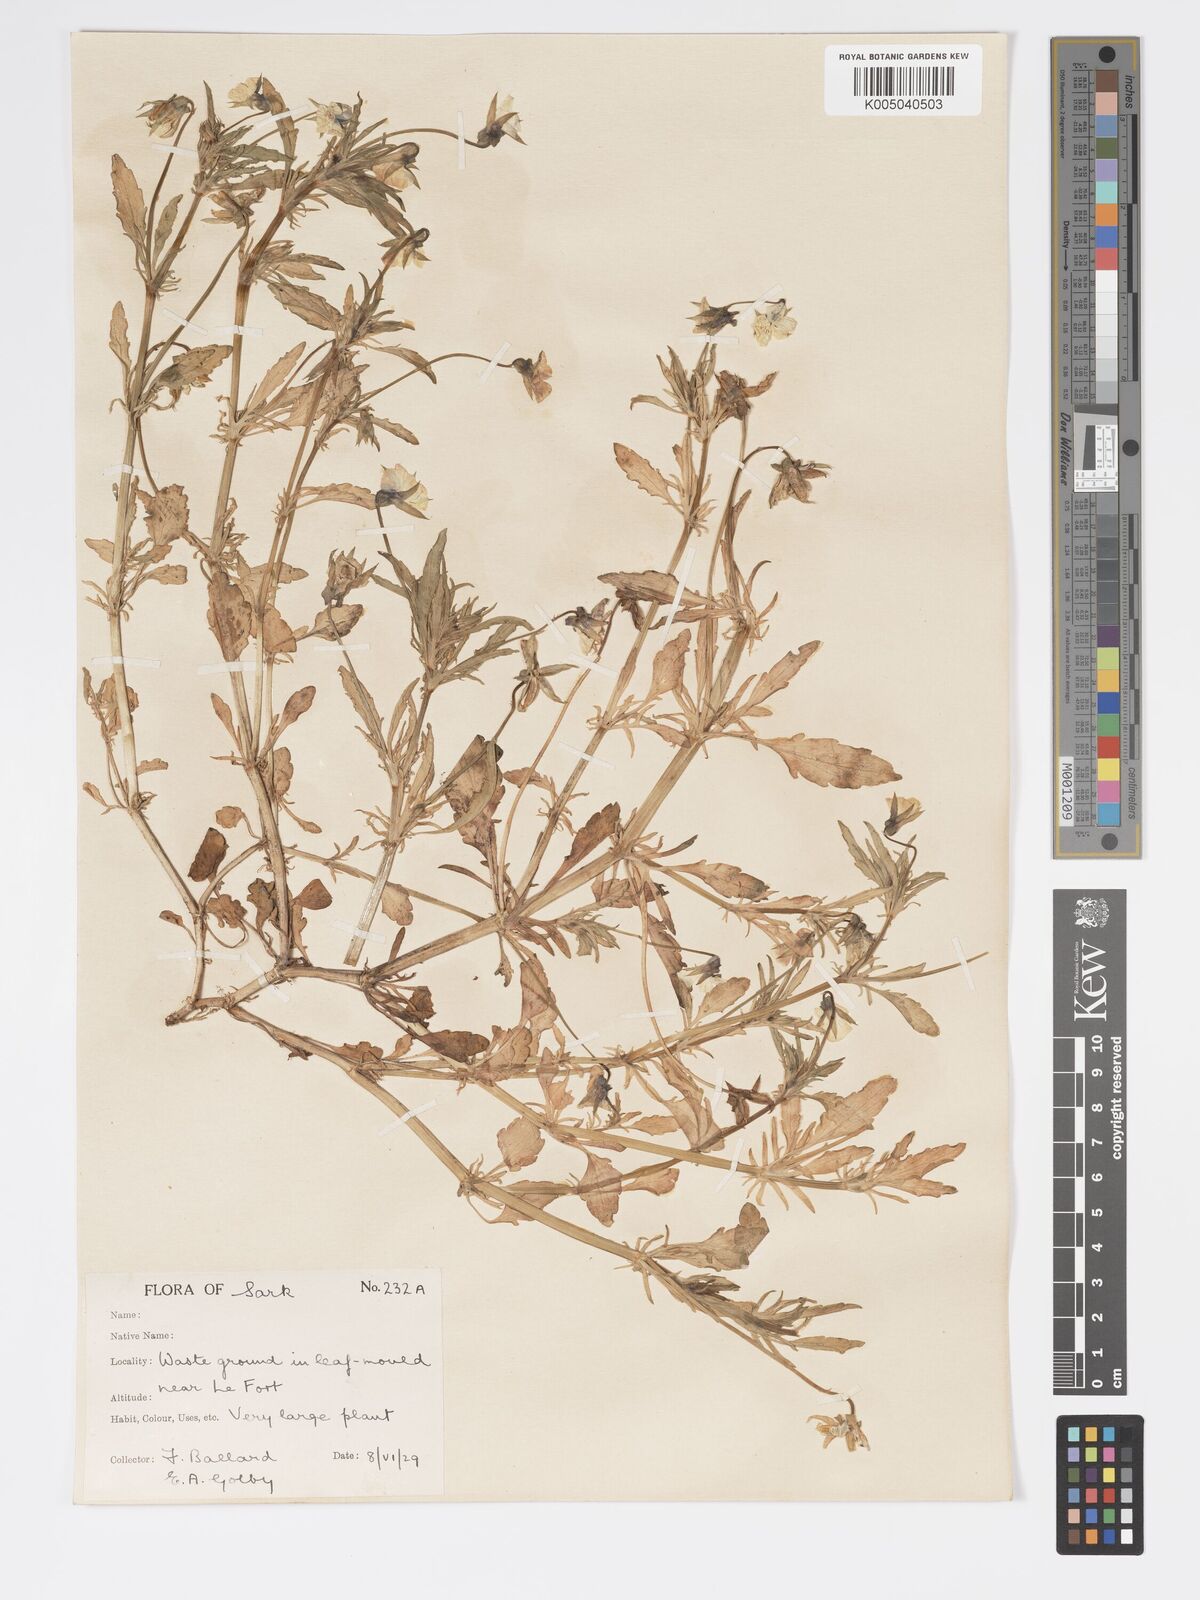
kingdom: Plantae
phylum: Tracheophyta
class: Magnoliopsida
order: Malpighiales
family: Violaceae
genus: Viola
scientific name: Viola arvensis
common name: Field pansy
